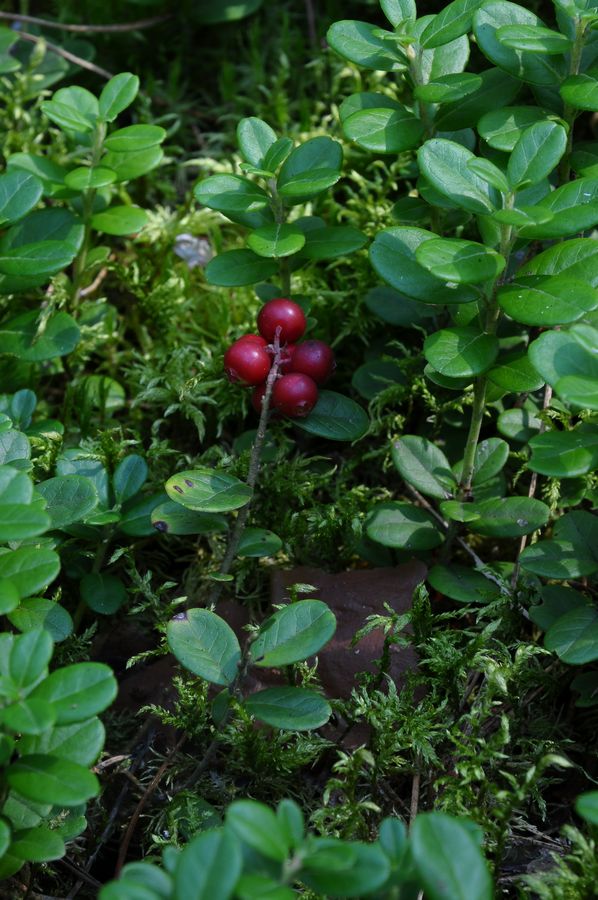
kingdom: Plantae
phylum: Tracheophyta
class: Magnoliopsida
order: Ericales
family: Ericaceae
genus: Vaccinium
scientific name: Vaccinium vitis-idaea
